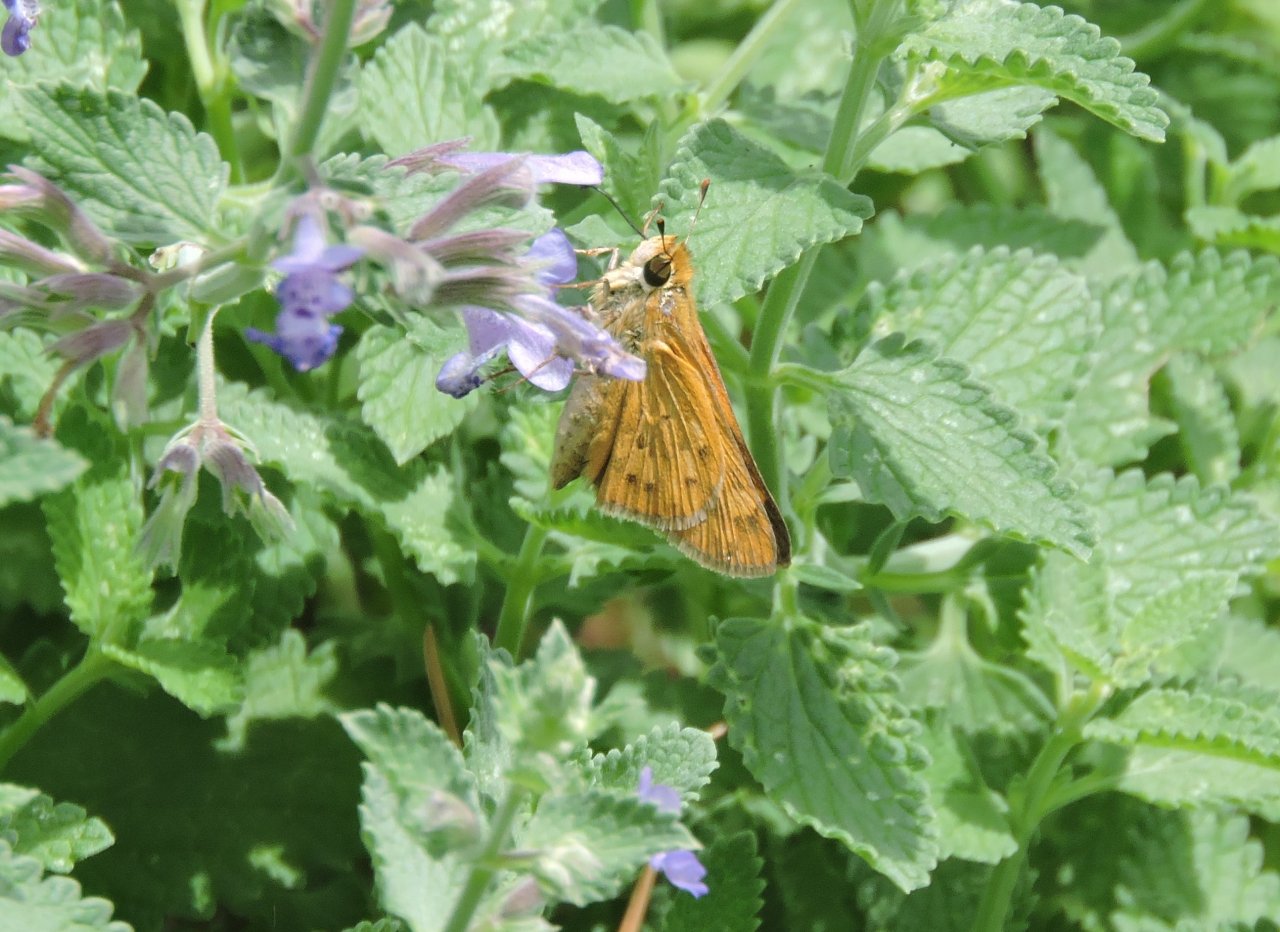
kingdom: Animalia
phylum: Arthropoda
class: Insecta
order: Lepidoptera
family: Hesperiidae
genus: Hylephila
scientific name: Hylephila phyleus
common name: Fiery Skipper
